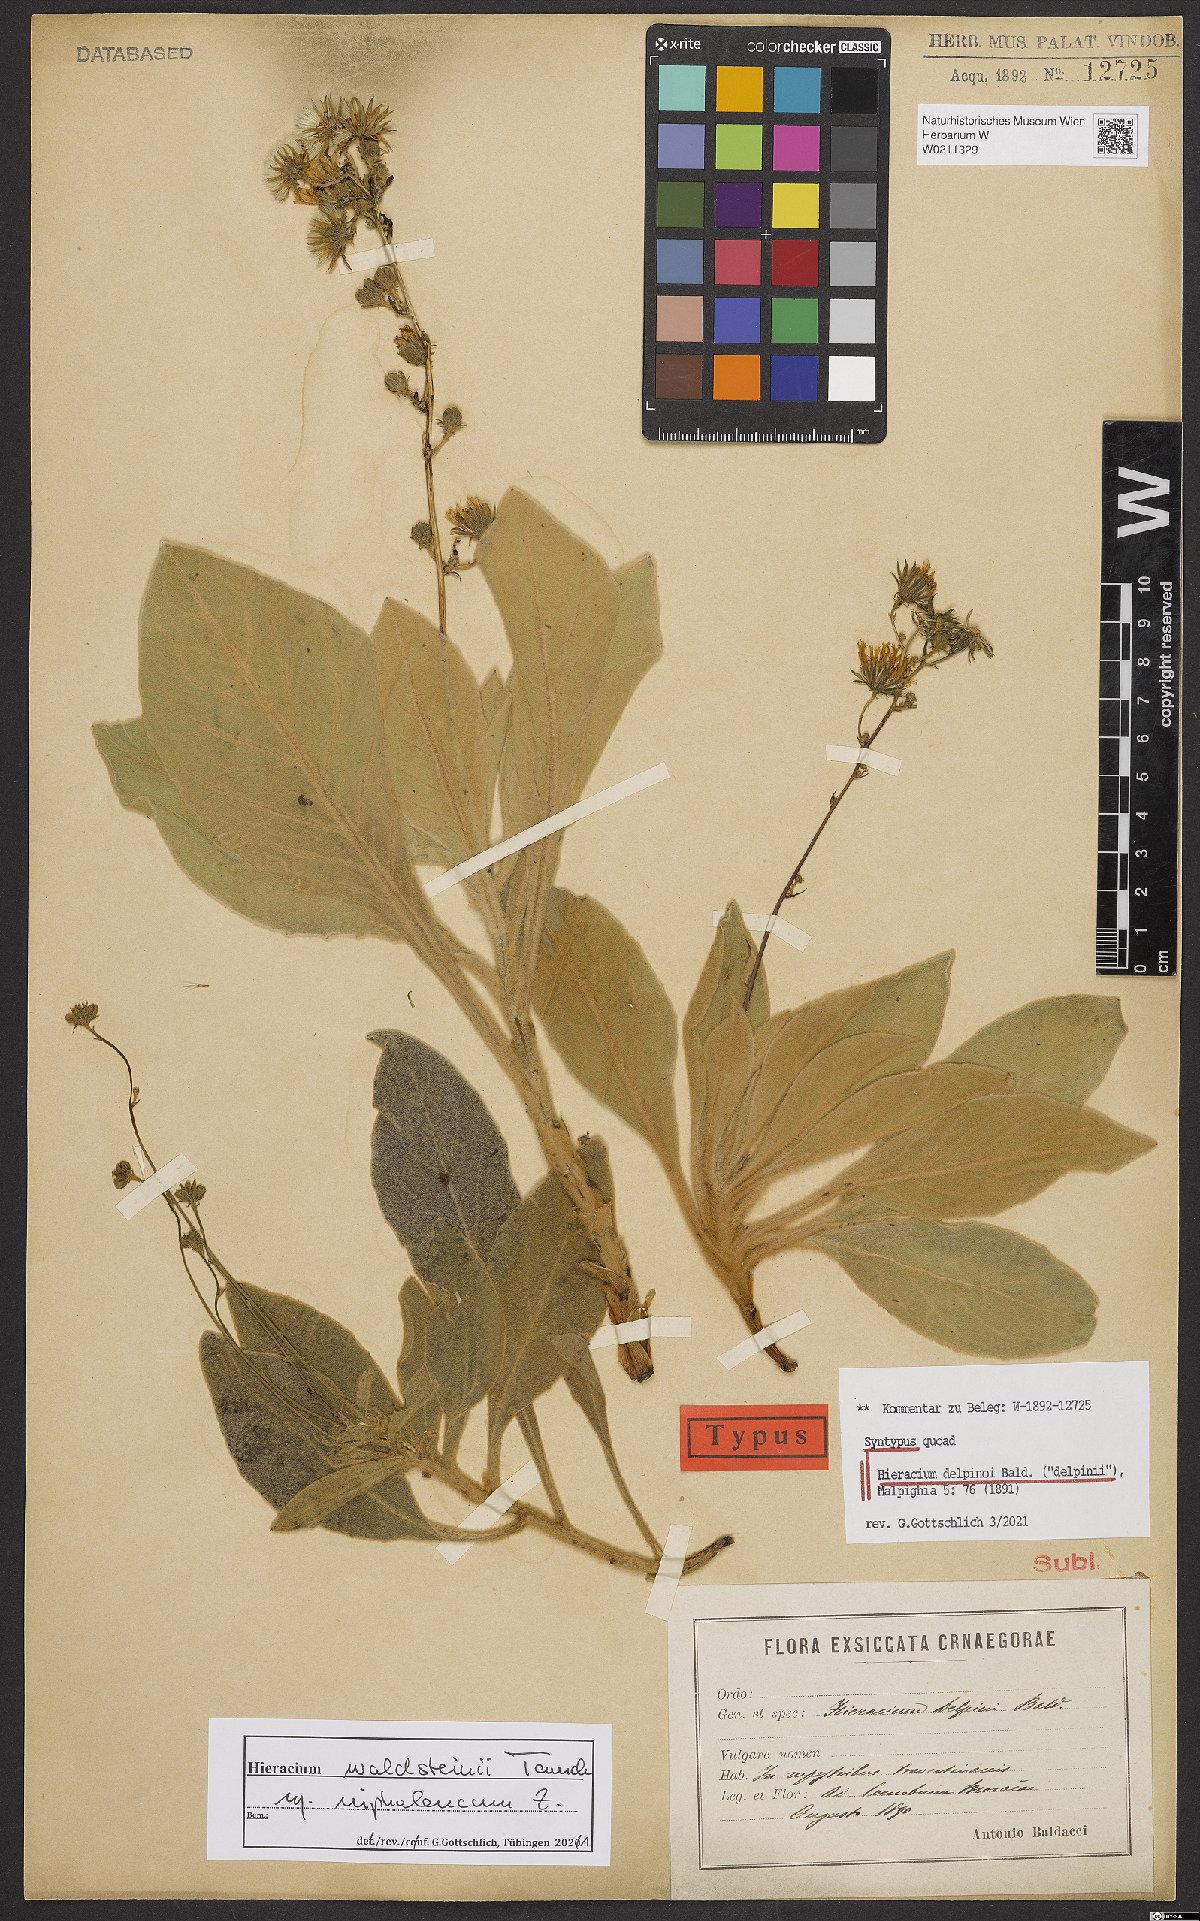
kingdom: Plantae
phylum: Tracheophyta
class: Magnoliopsida
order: Asterales
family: Asteraceae
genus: Hieracium
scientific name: Hieracium waldsteinii
